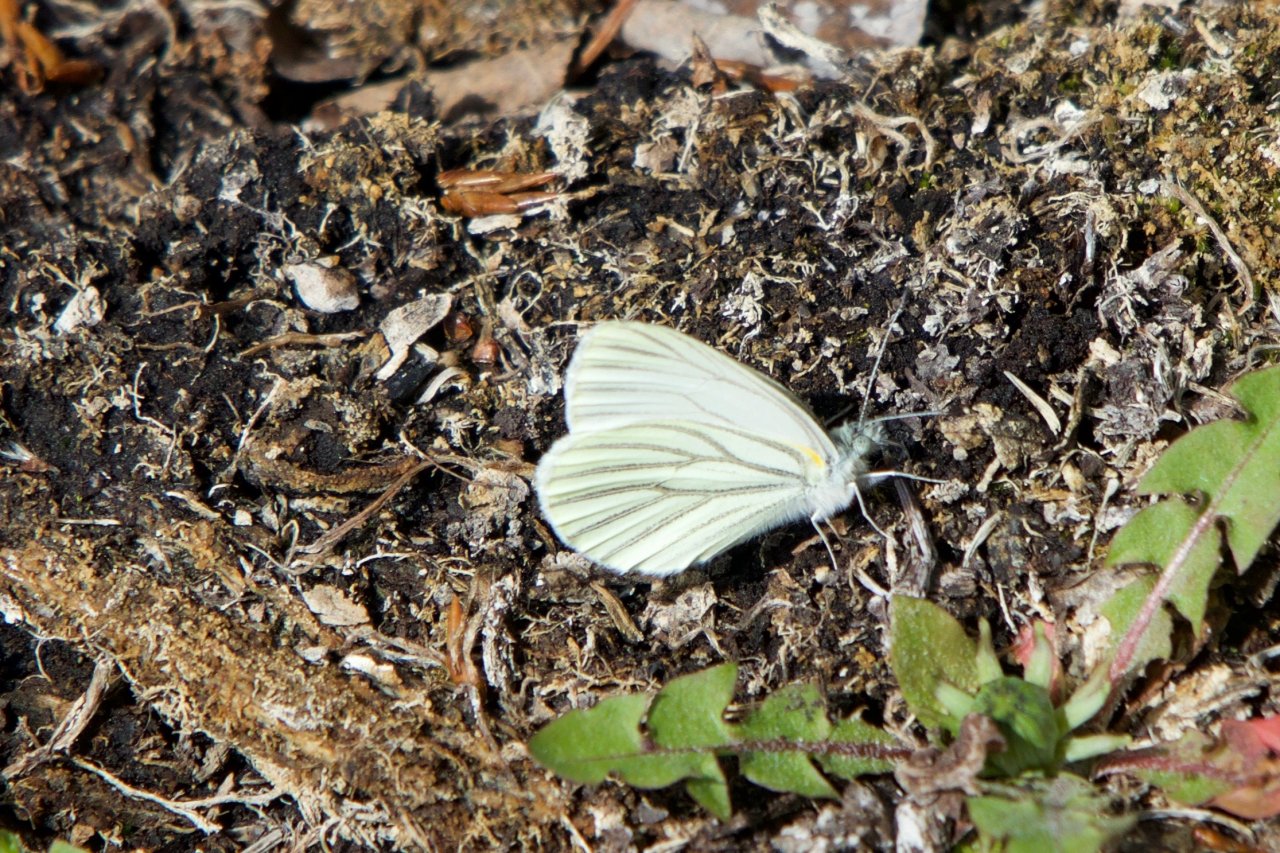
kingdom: Animalia
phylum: Arthropoda
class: Insecta
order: Lepidoptera
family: Pieridae
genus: Pieris
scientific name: Pieris oleracea
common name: Mustard White
